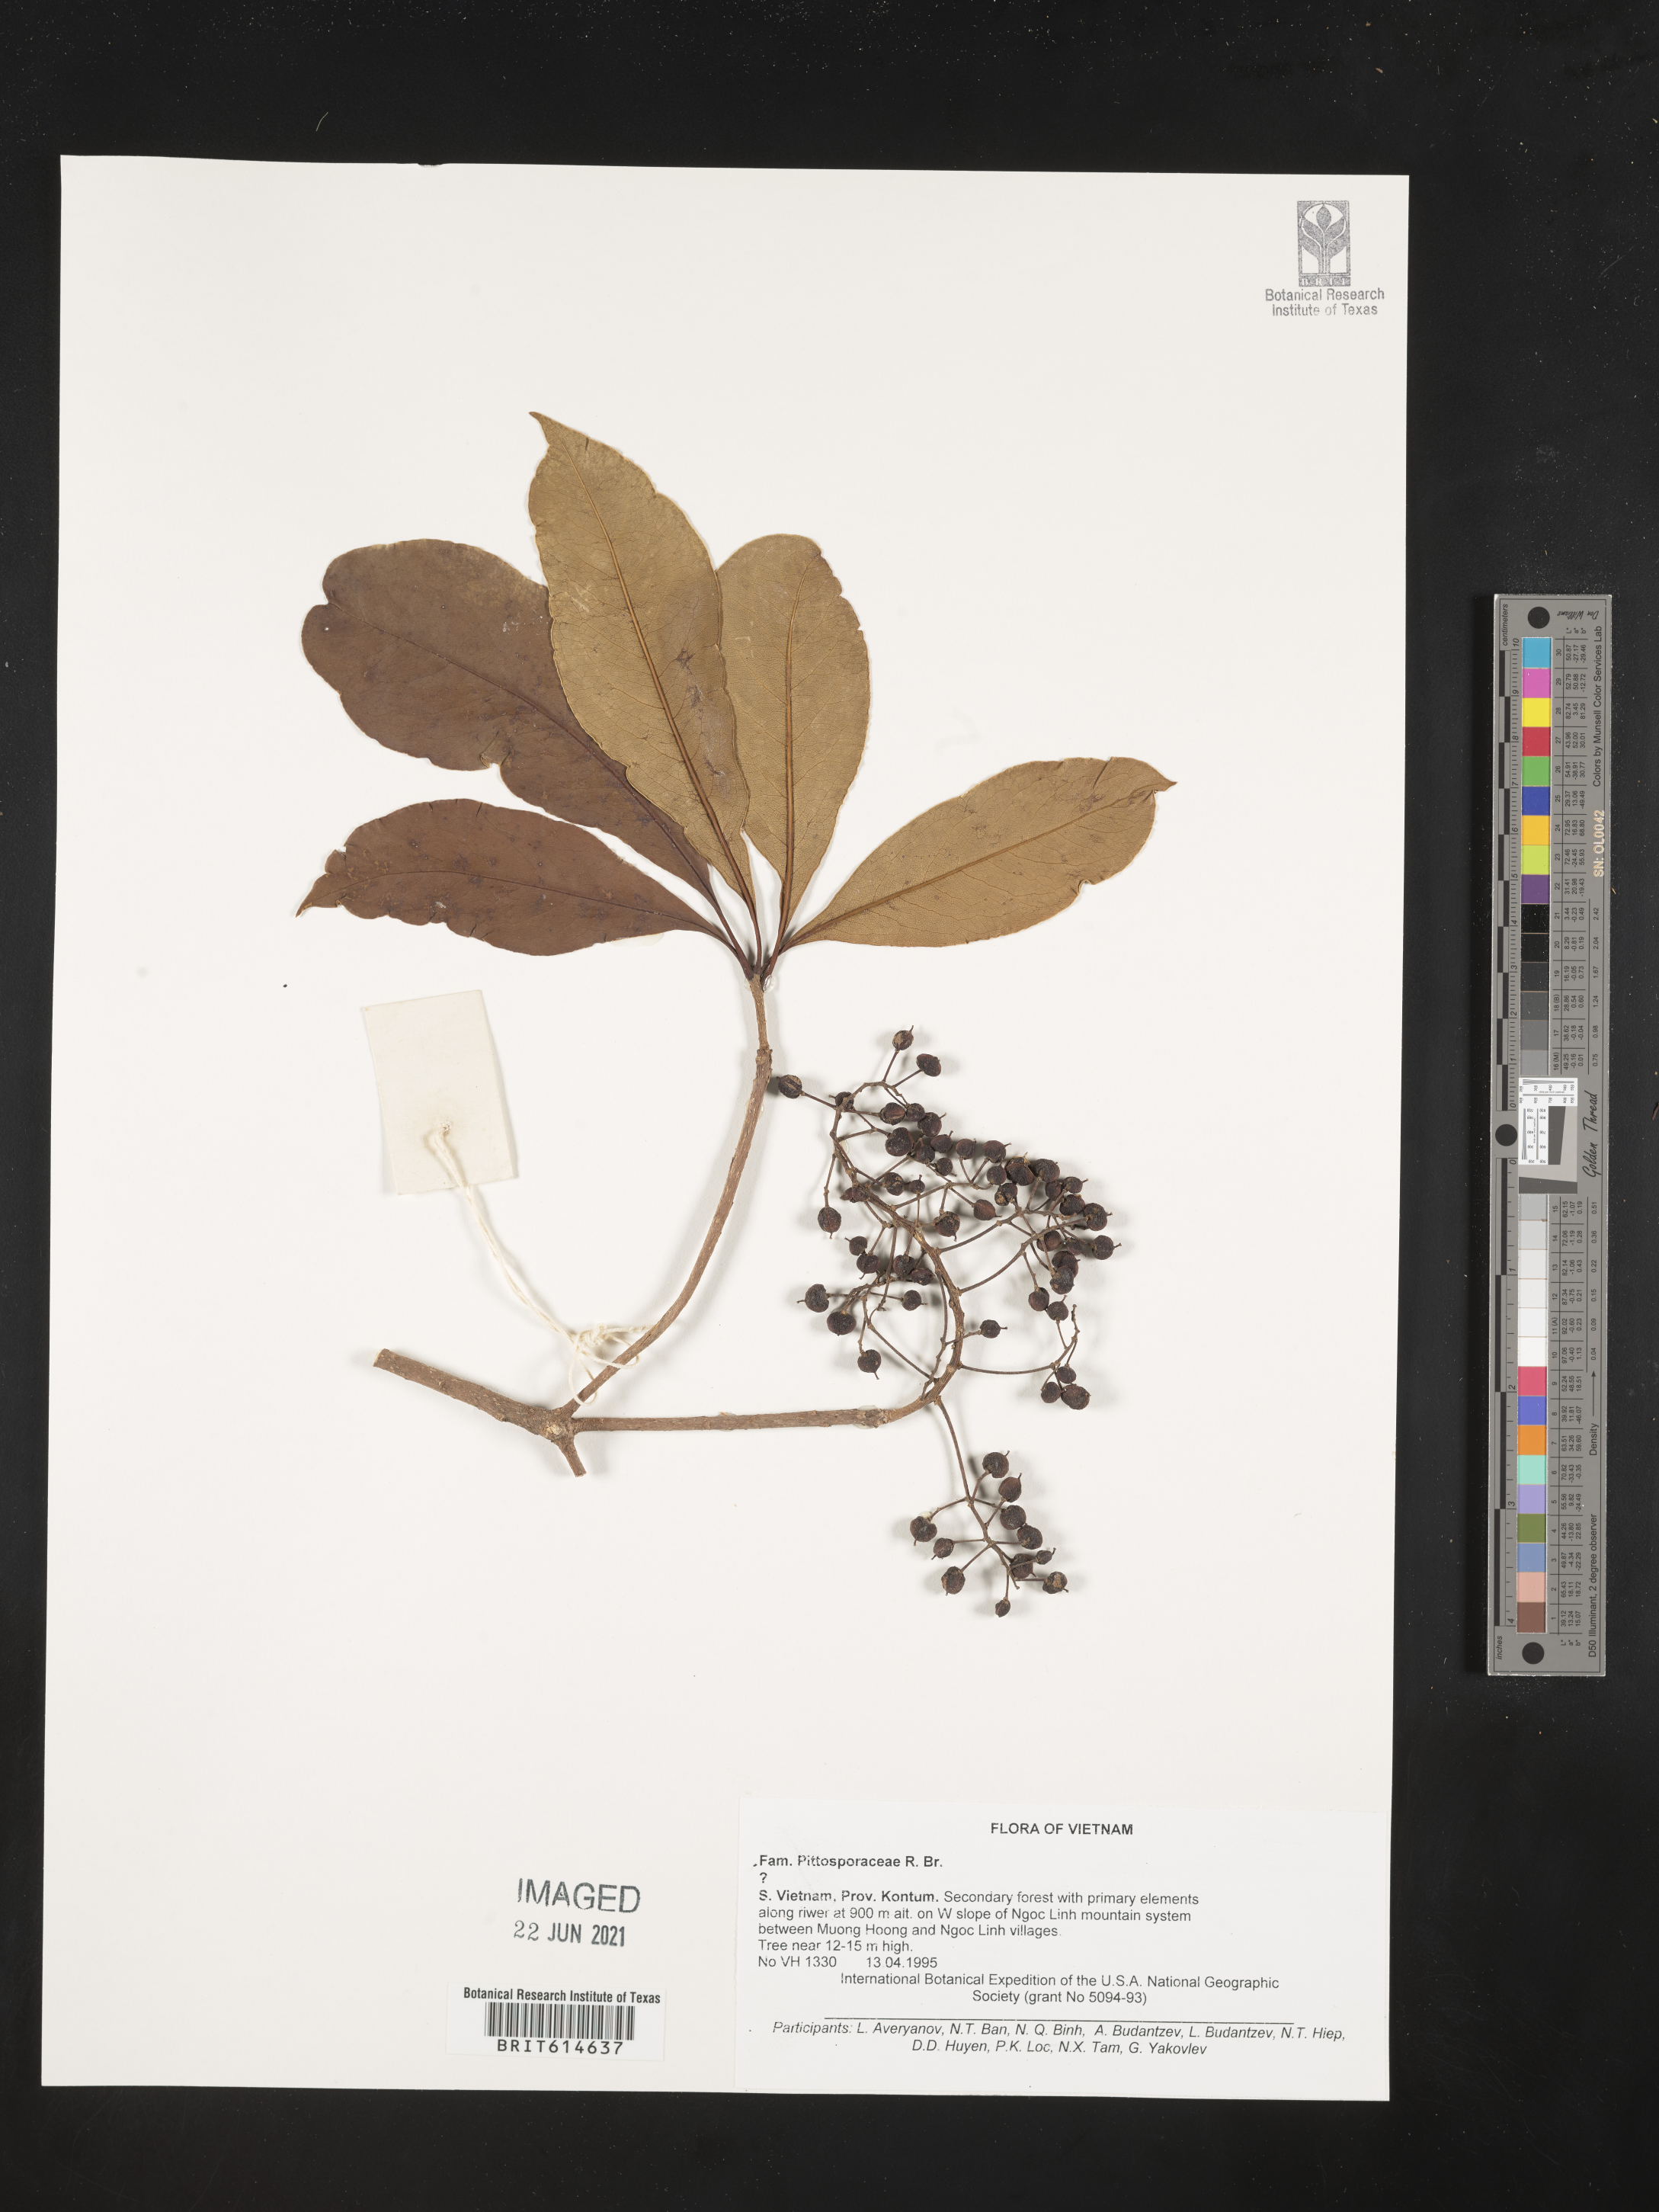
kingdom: Plantae
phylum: Tracheophyta
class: Magnoliopsida
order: Apiales
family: Pittosporaceae
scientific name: Pittosporaceae
